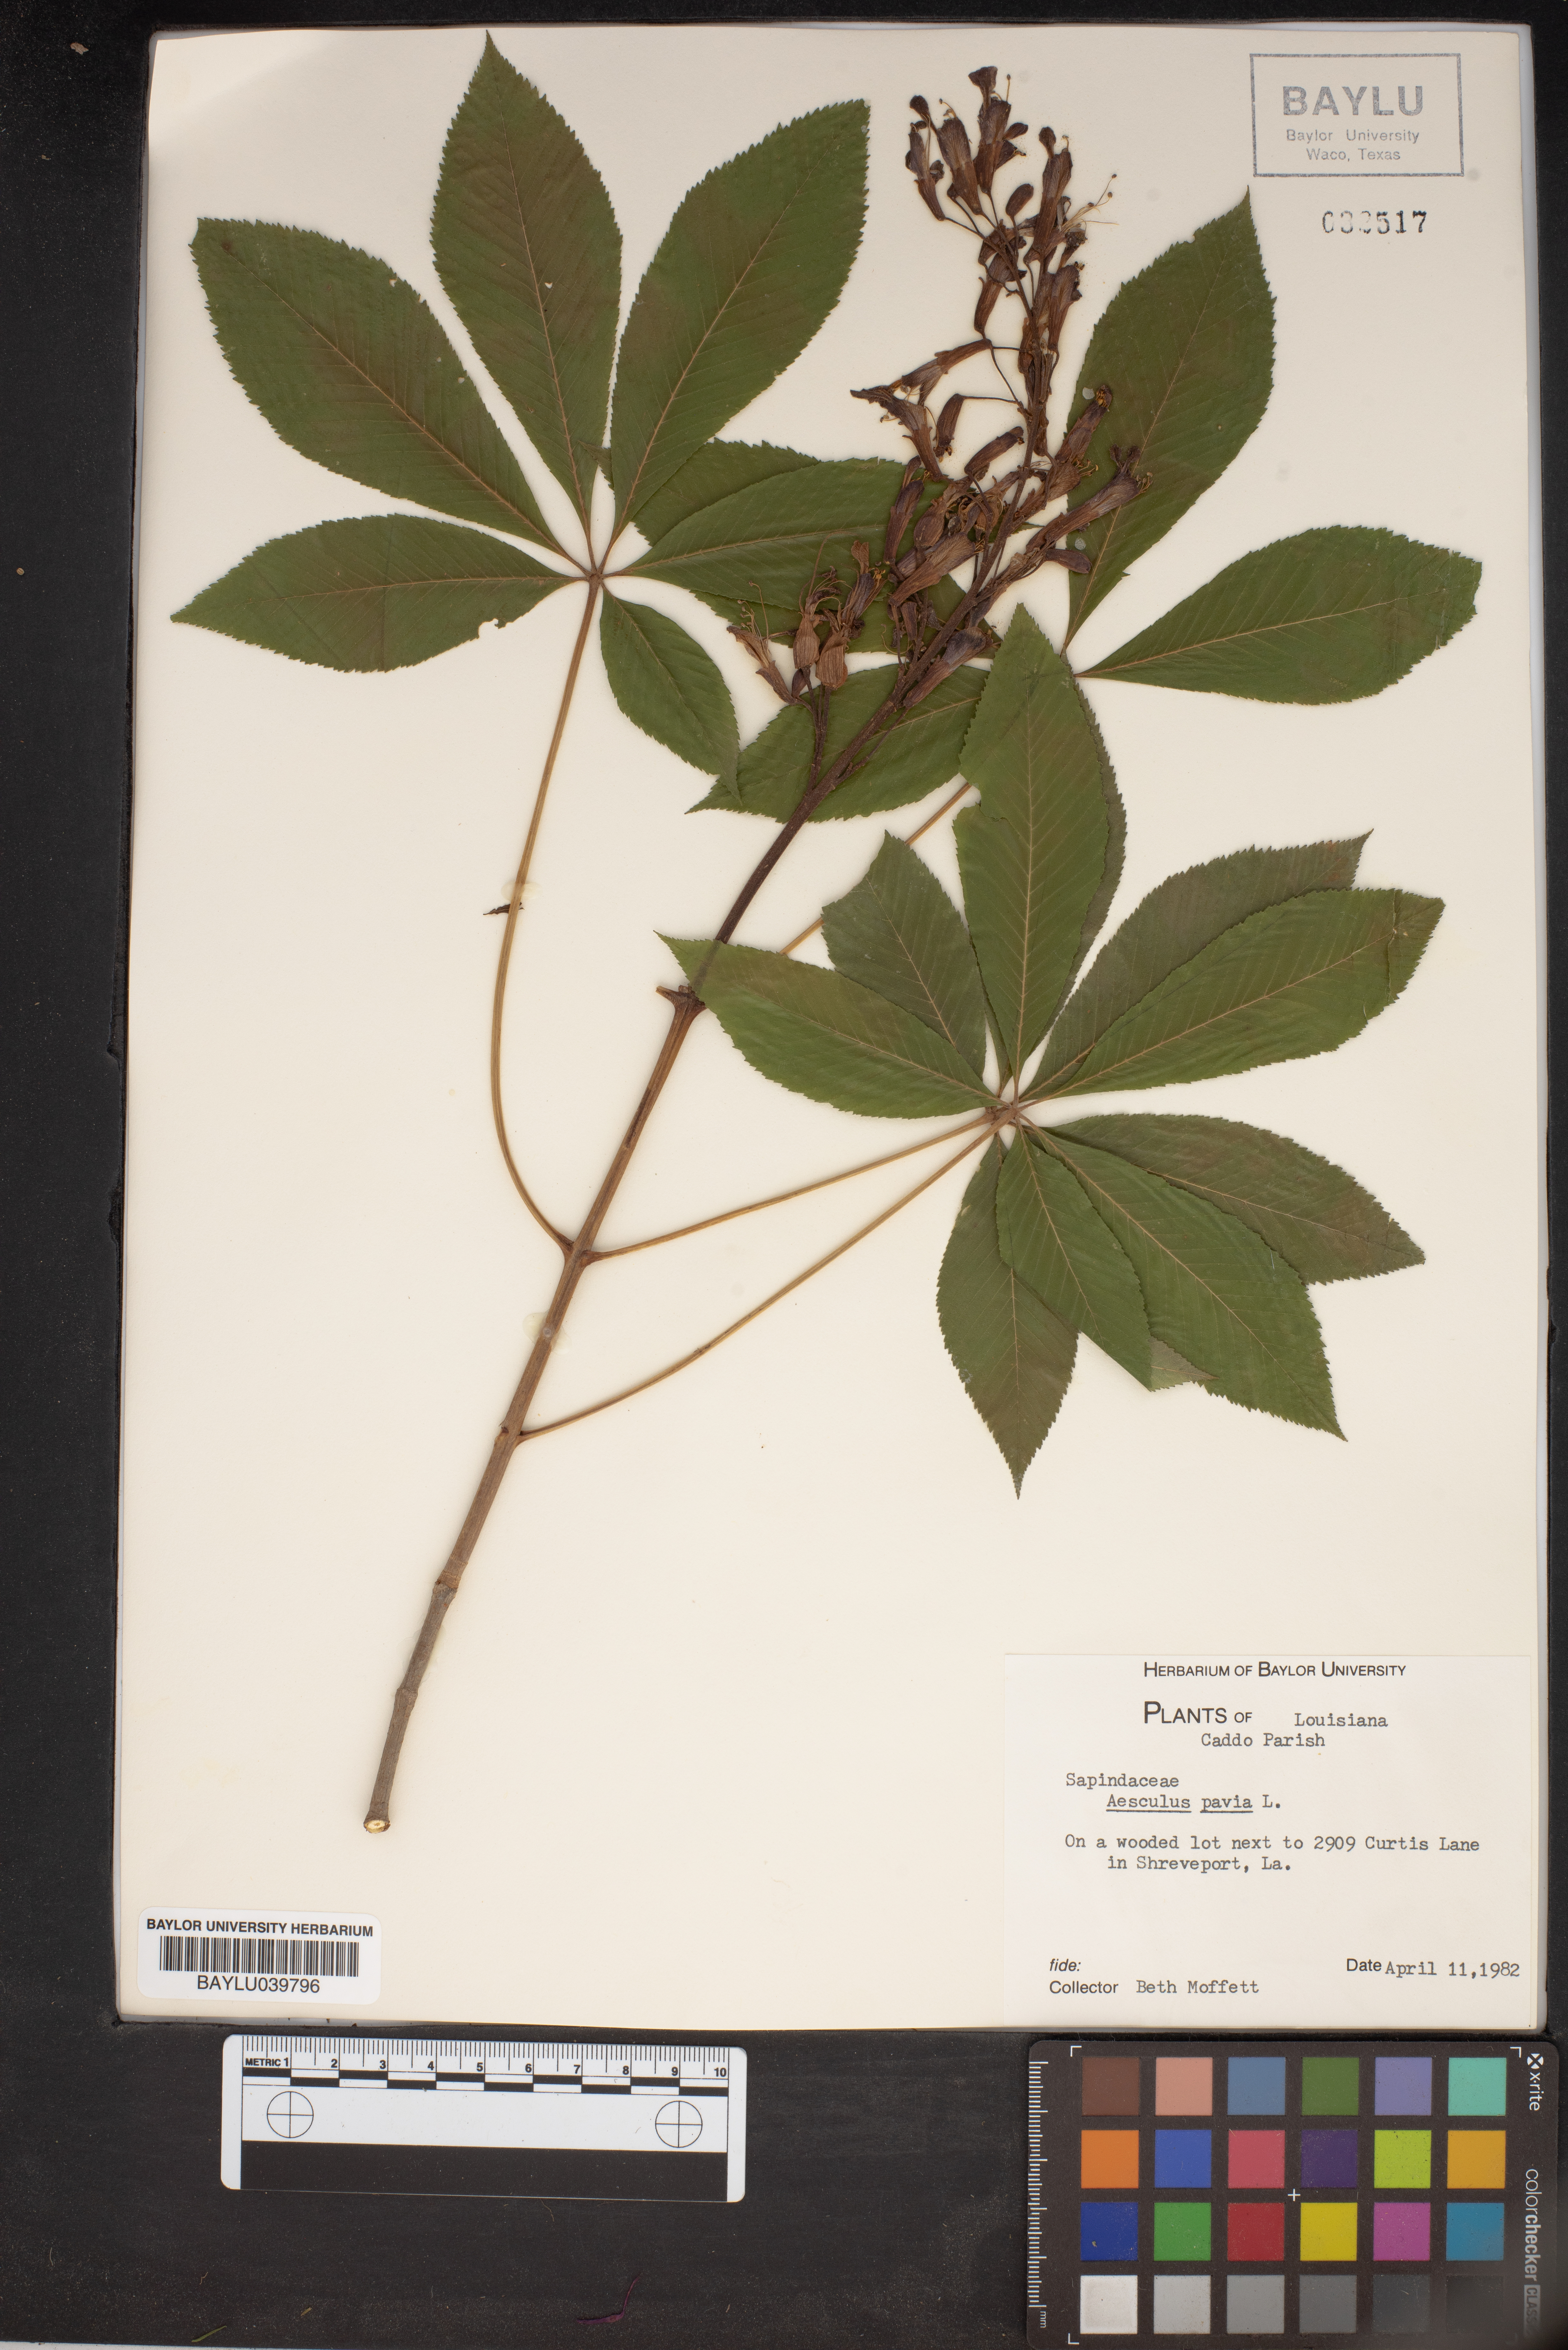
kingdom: Plantae
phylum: Tracheophyta
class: Magnoliopsida
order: Sapindales
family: Sapindaceae
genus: Aesculus
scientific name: Aesculus pavia
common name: Red buckeye
